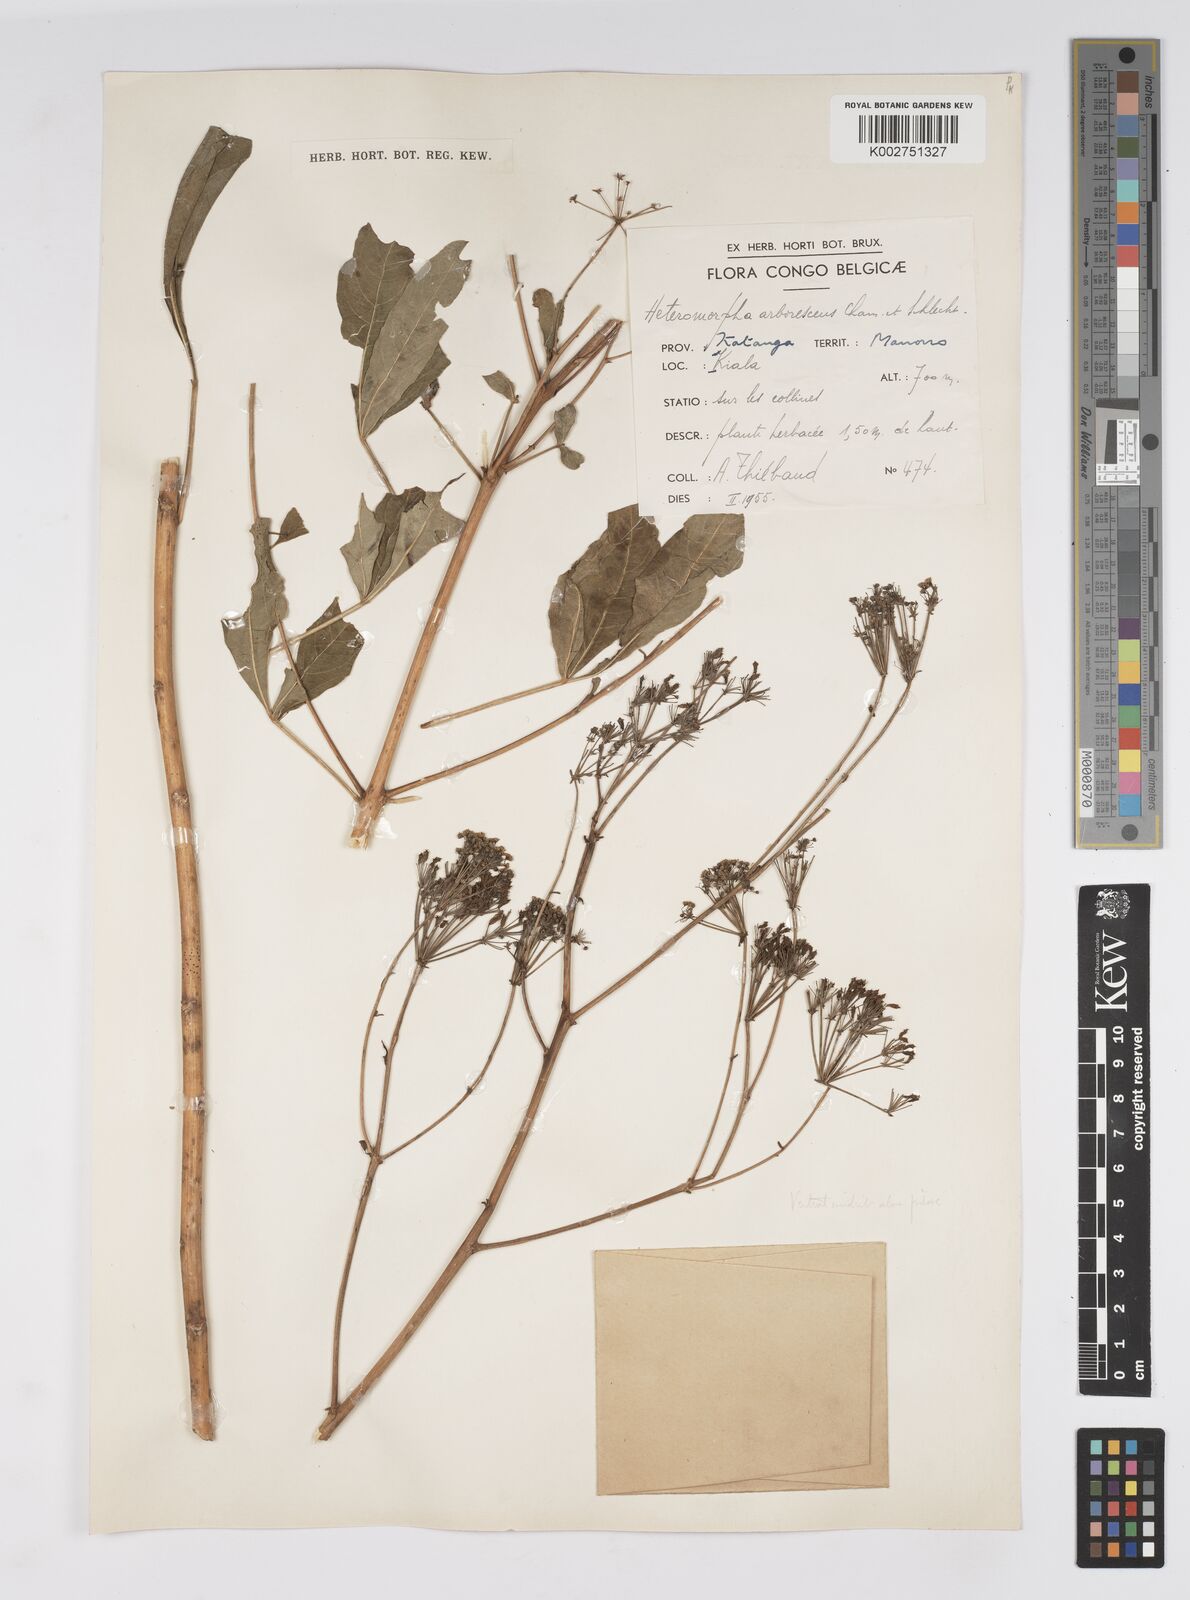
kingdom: Plantae
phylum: Tracheophyta
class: Magnoliopsida
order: Apiales
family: Apiaceae
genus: Heteromorpha
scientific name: Heteromorpha arborescens
